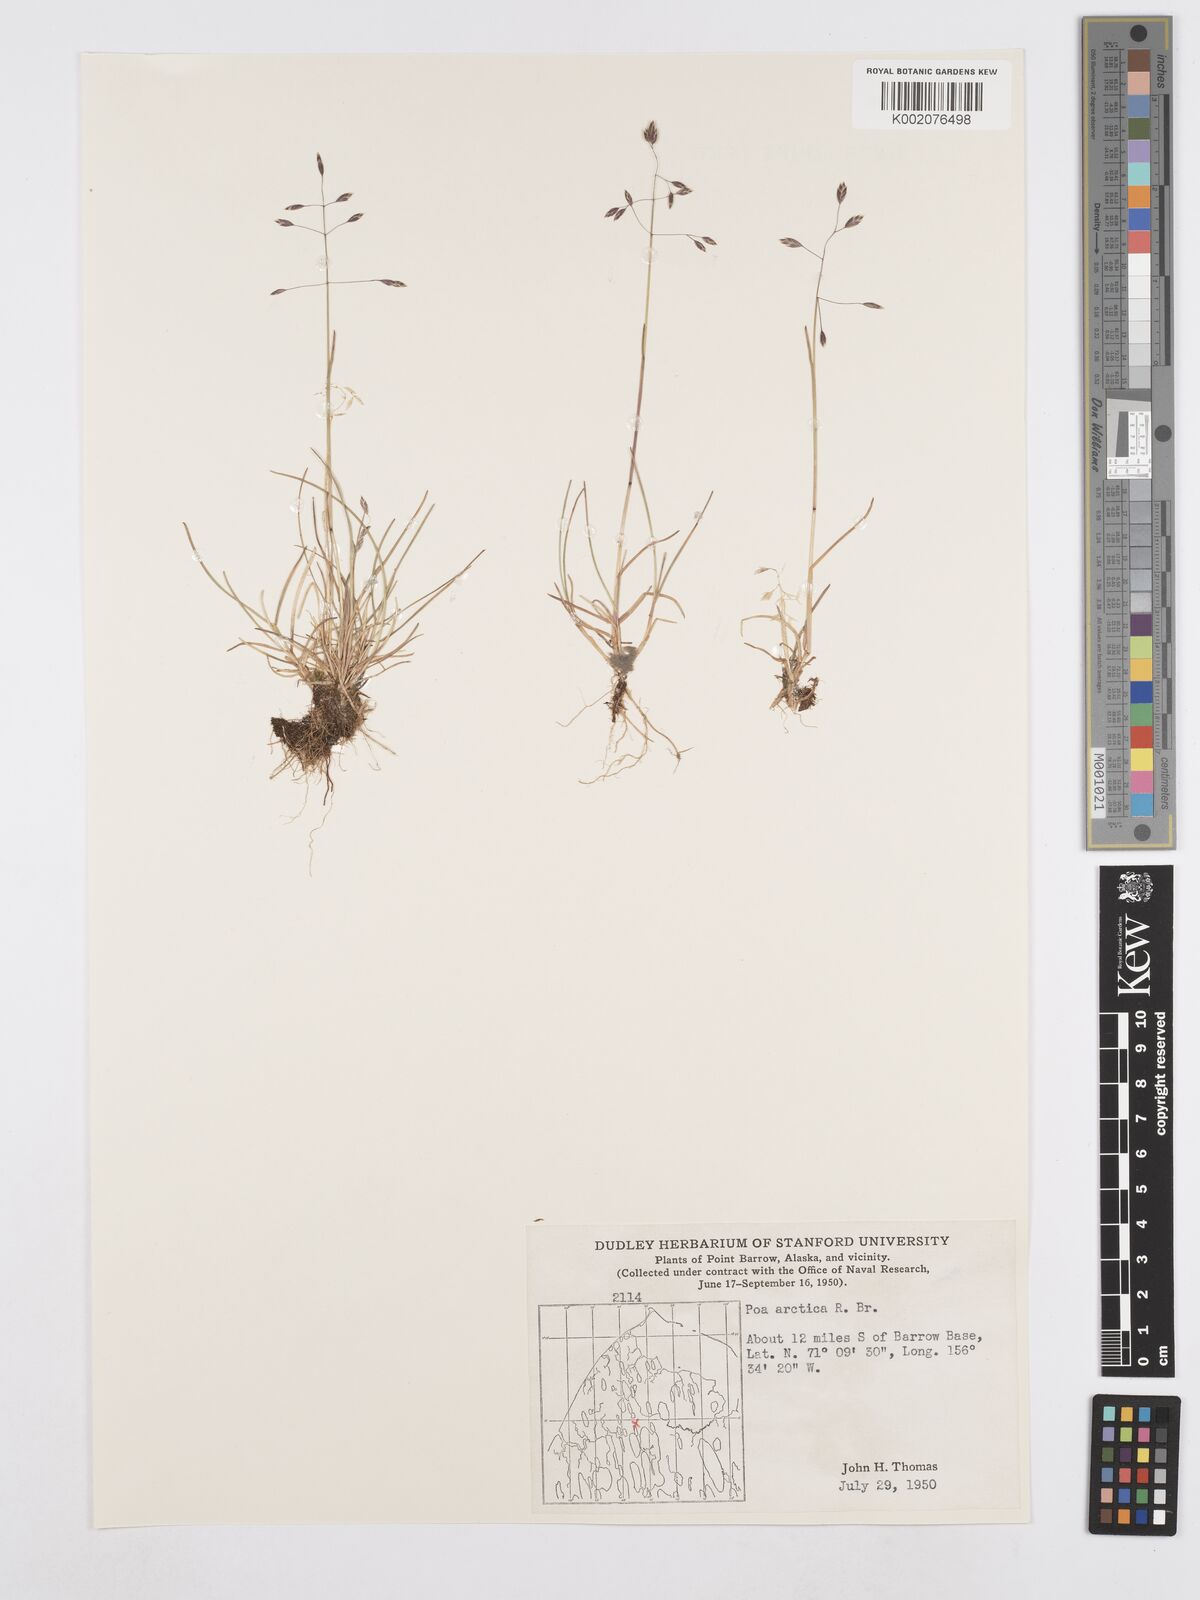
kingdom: Plantae
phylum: Tracheophyta
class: Liliopsida
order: Poales
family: Poaceae
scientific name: Poaceae
